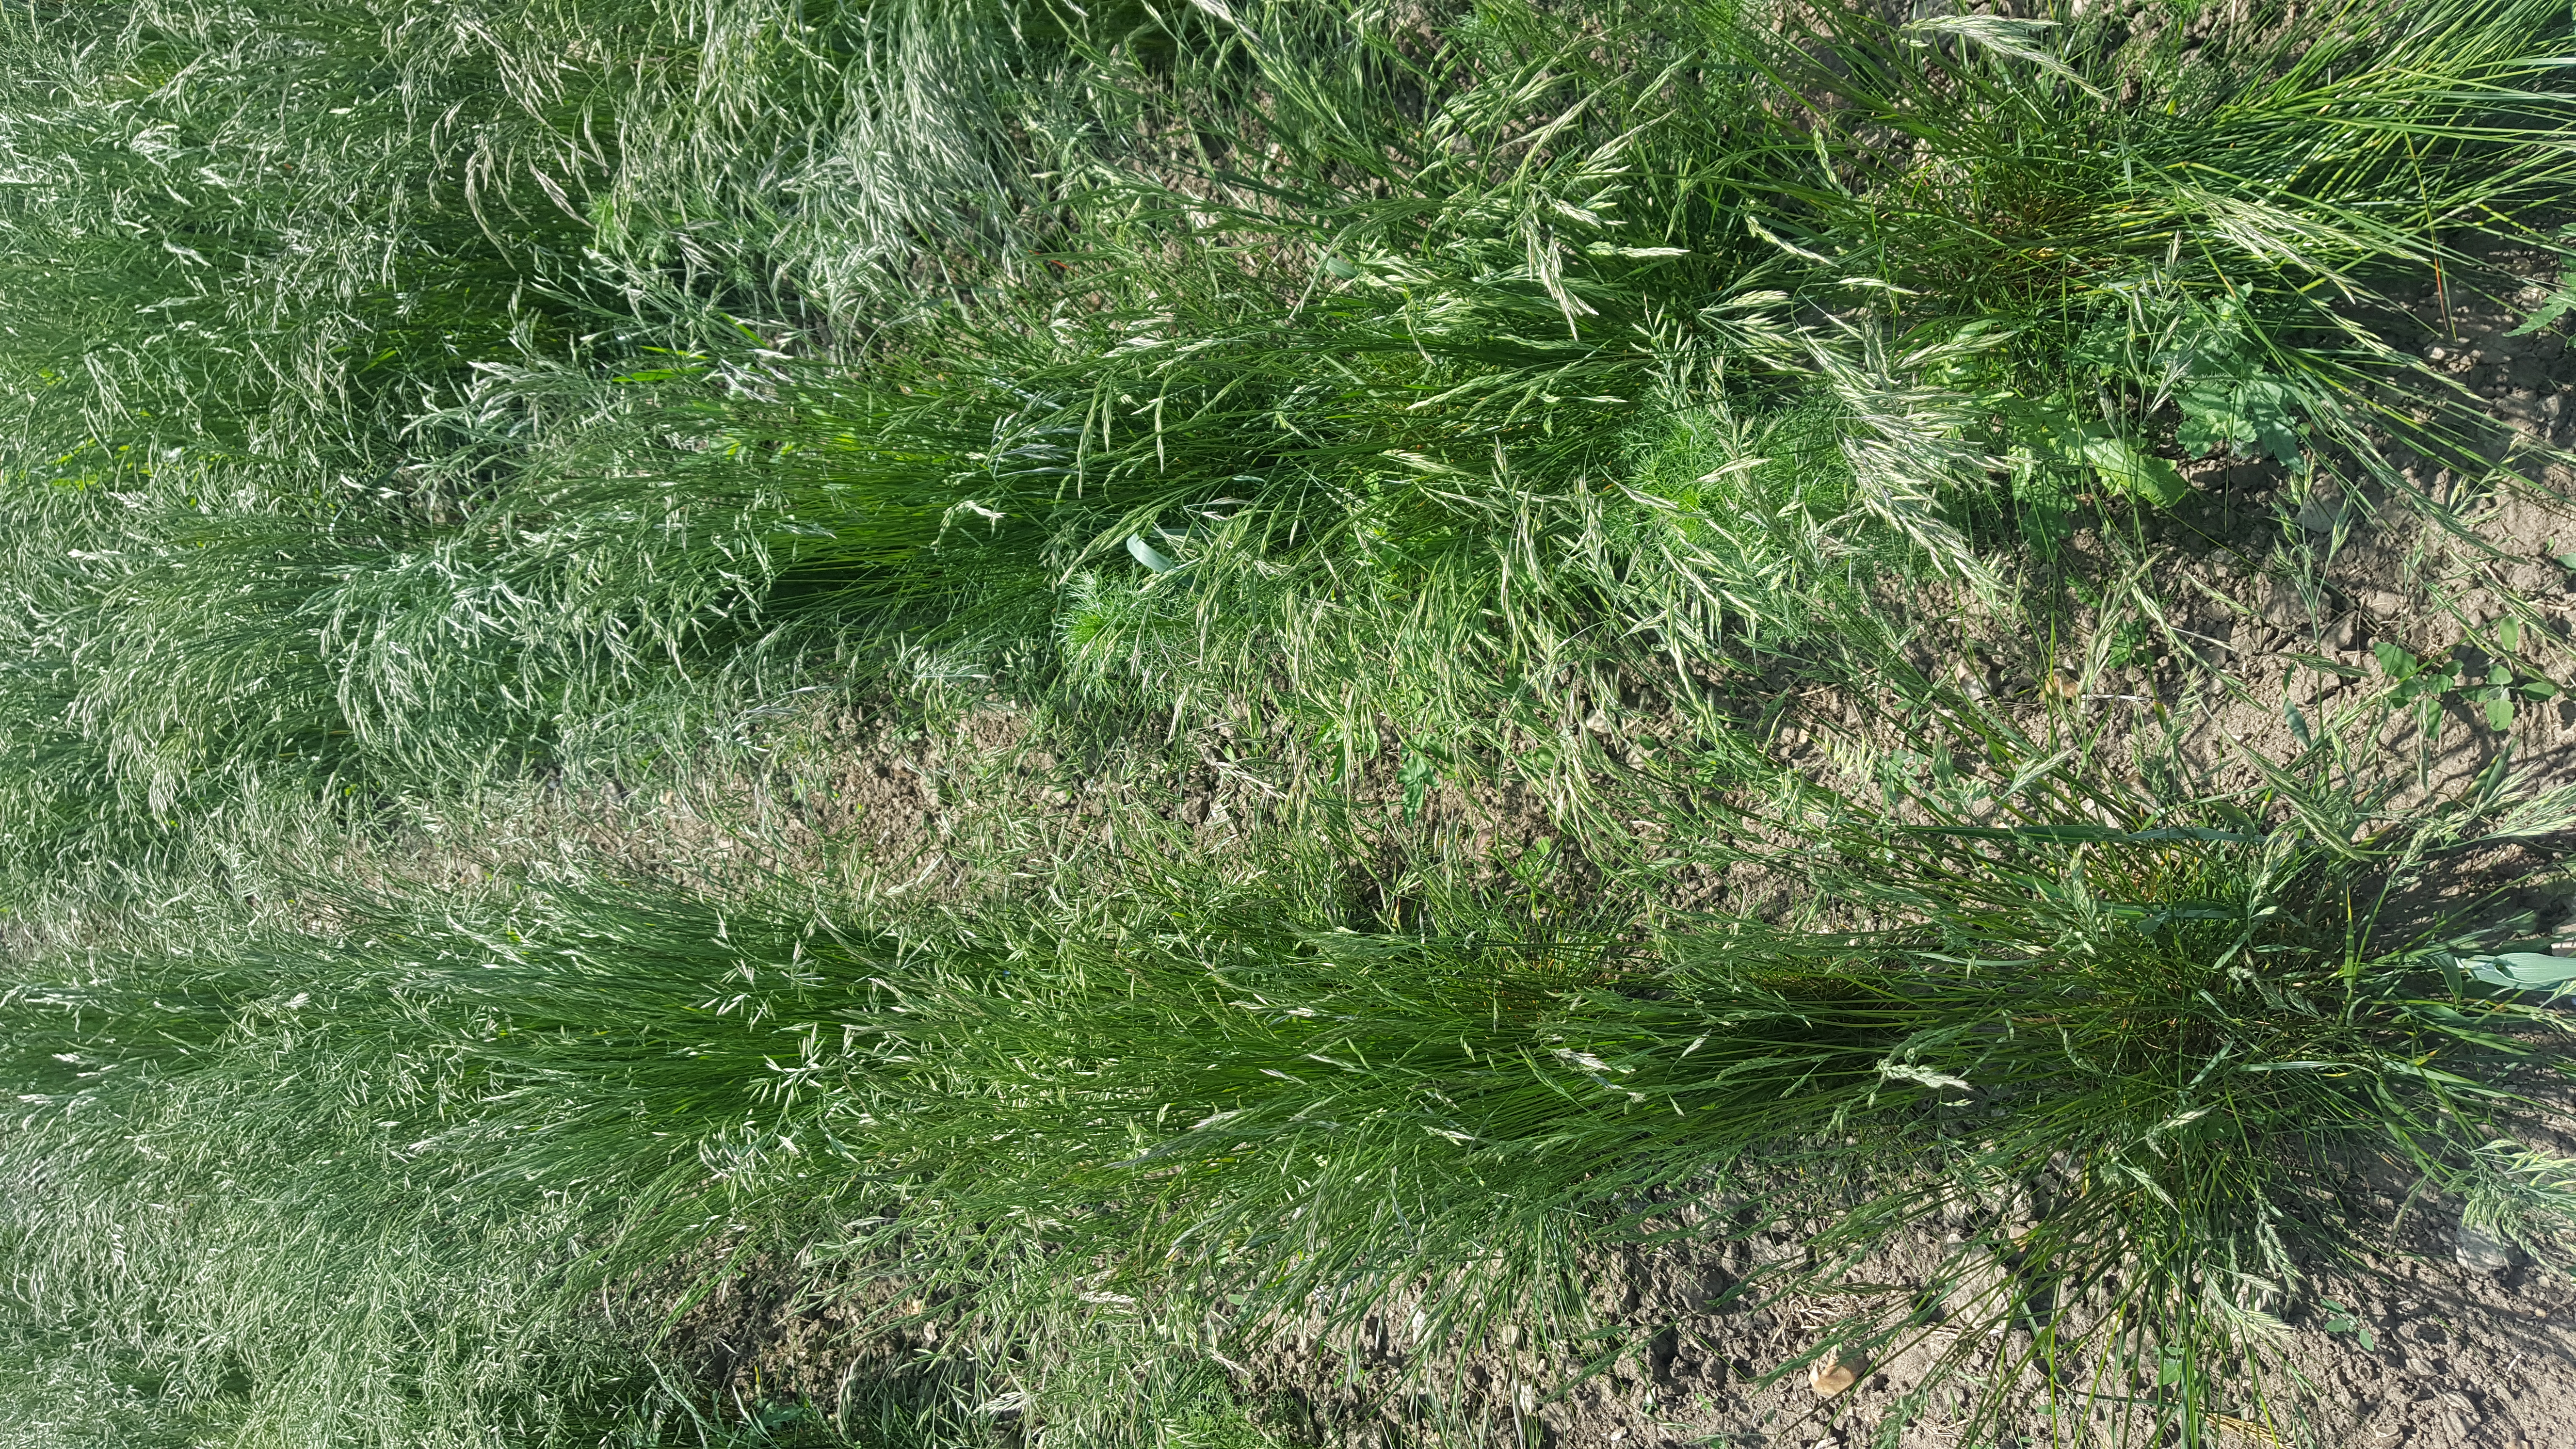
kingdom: Plantae
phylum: Tracheophyta
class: Liliopsida
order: Poales
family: Poaceae
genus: Festuca
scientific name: Festuca rubra
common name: Red fescue
